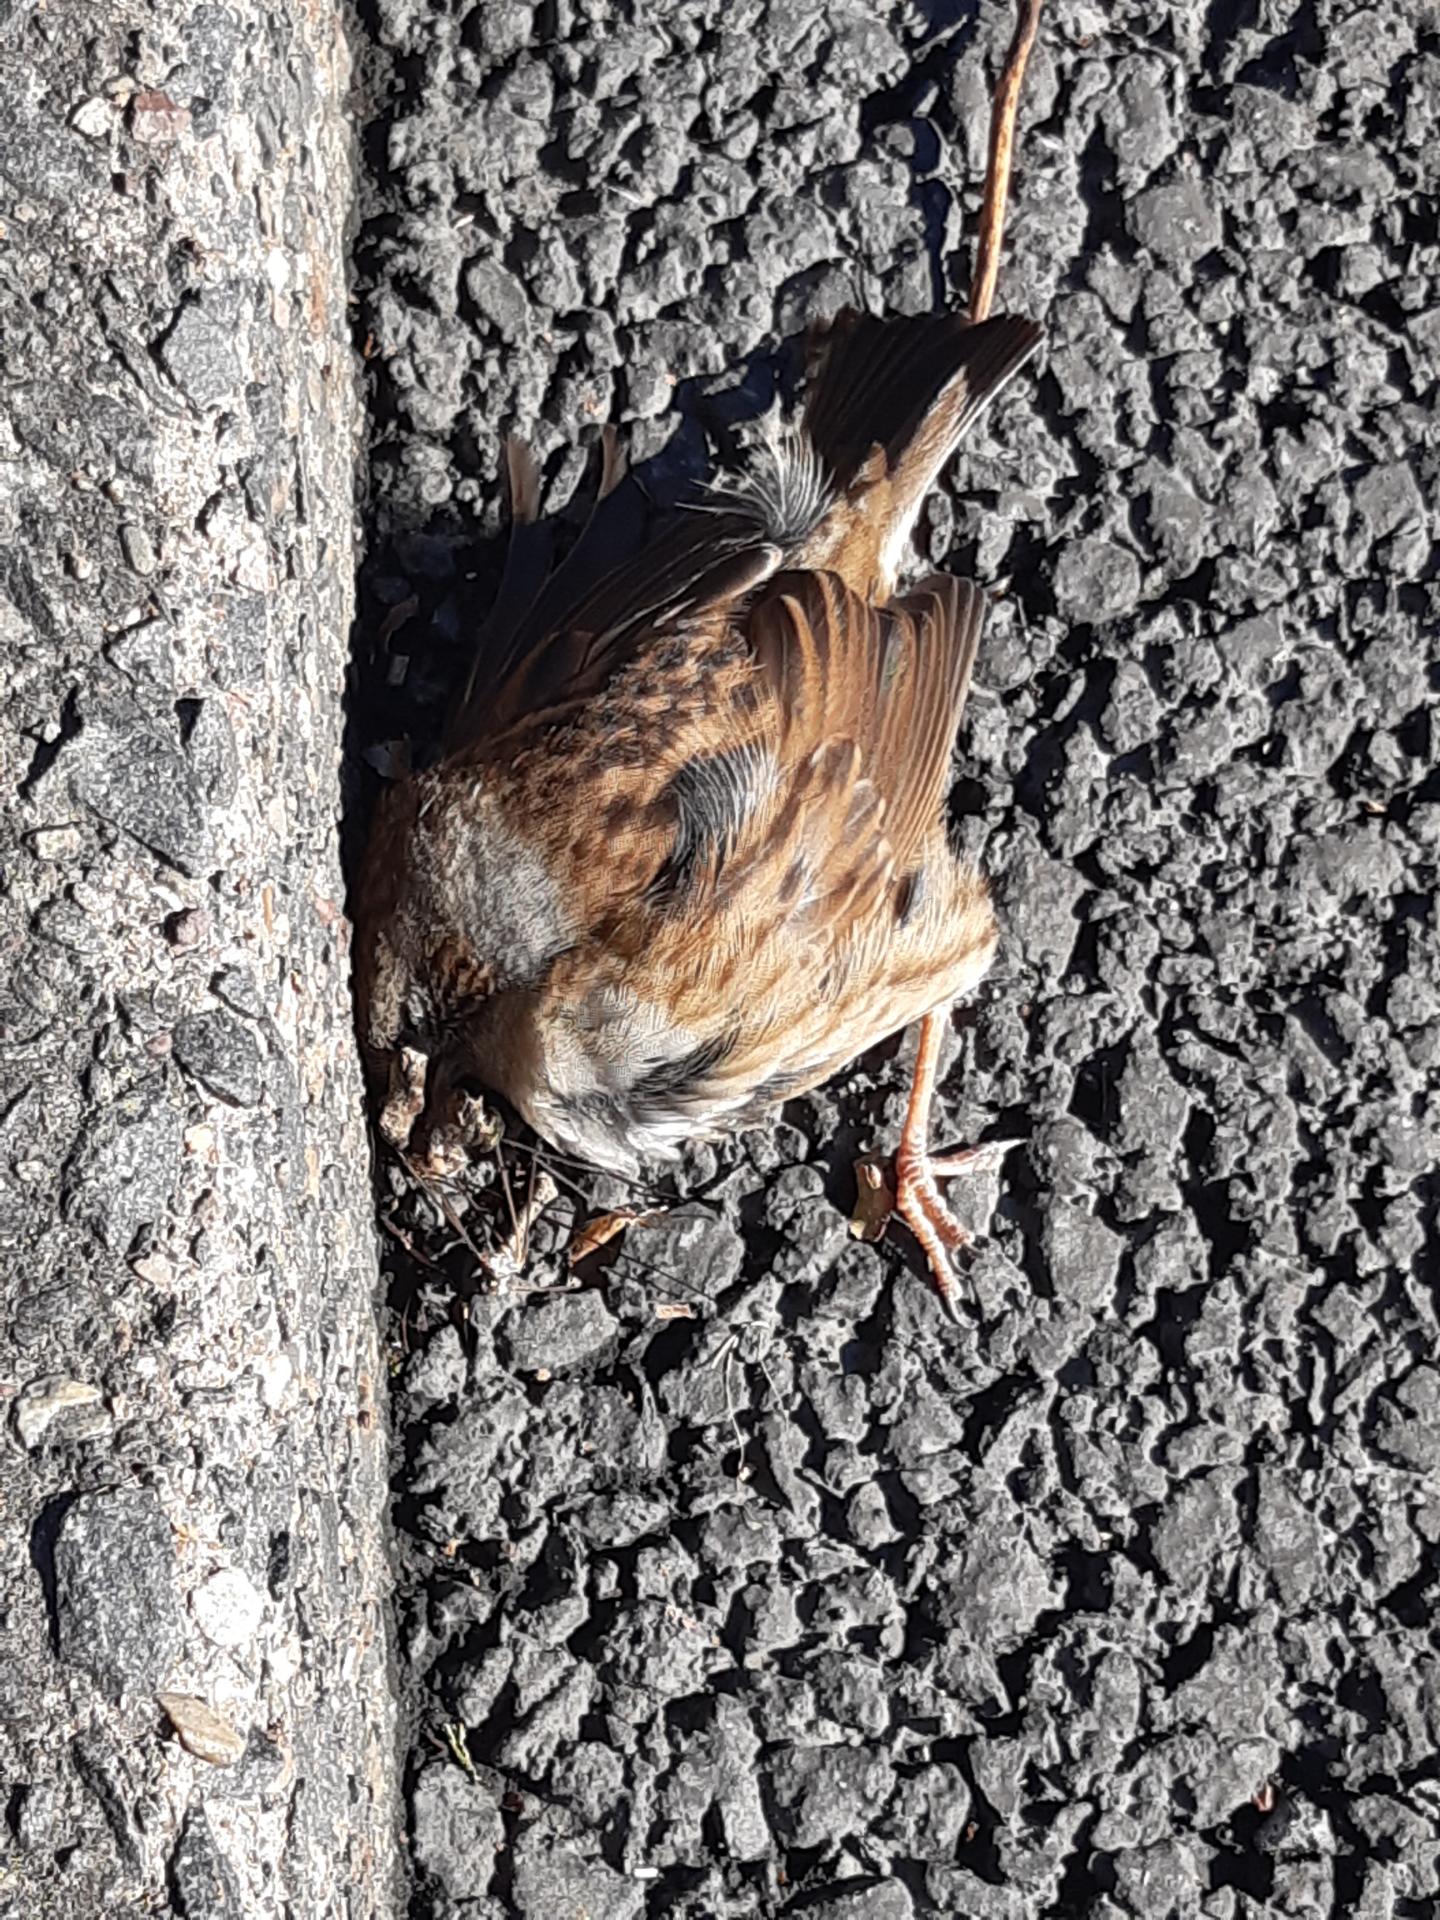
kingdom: Animalia
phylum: Chordata
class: Aves
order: Passeriformes
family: Prunellidae
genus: Prunella
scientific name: Prunella modularis
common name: Dunnock
